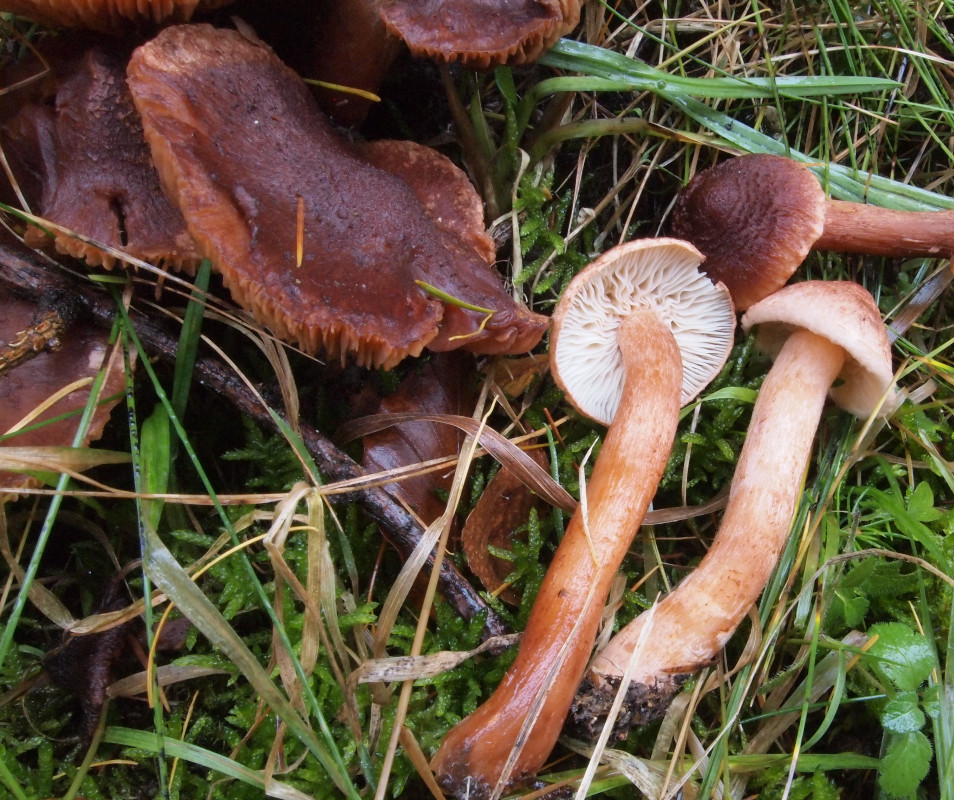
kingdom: Fungi
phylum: Basidiomycota
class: Agaricomycetes
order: Agaricales
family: Tricholomataceae
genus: Tricholoma
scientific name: Tricholoma vaccinum
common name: ko-ridderhat
